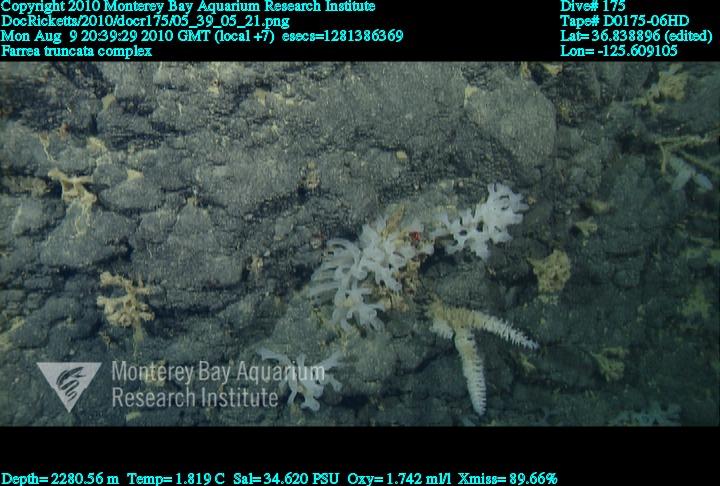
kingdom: Animalia
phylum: Porifera
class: Hexactinellida
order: Sceptrulophora
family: Farreidae
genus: Farrea
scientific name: Farrea truncata
